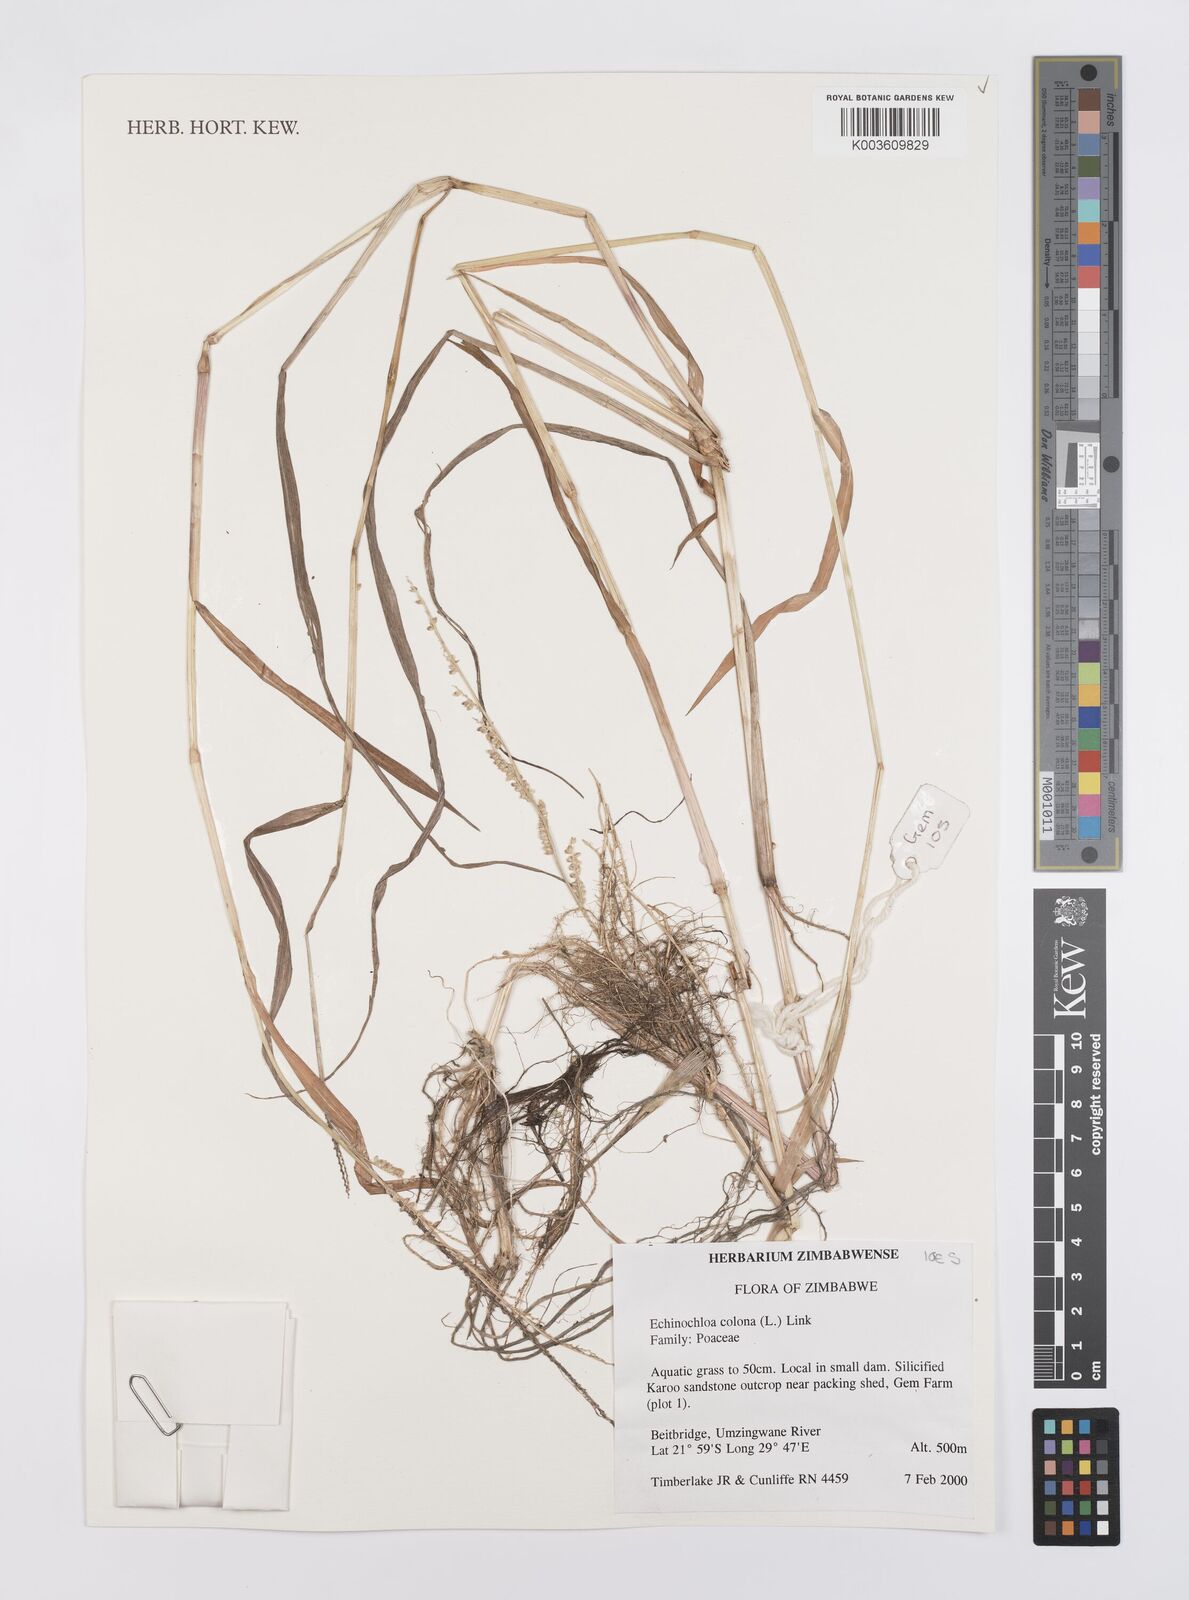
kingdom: Plantae
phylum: Tracheophyta
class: Liliopsida
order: Poales
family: Poaceae
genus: Echinochloa
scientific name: Echinochloa colonum
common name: Jungle rice
